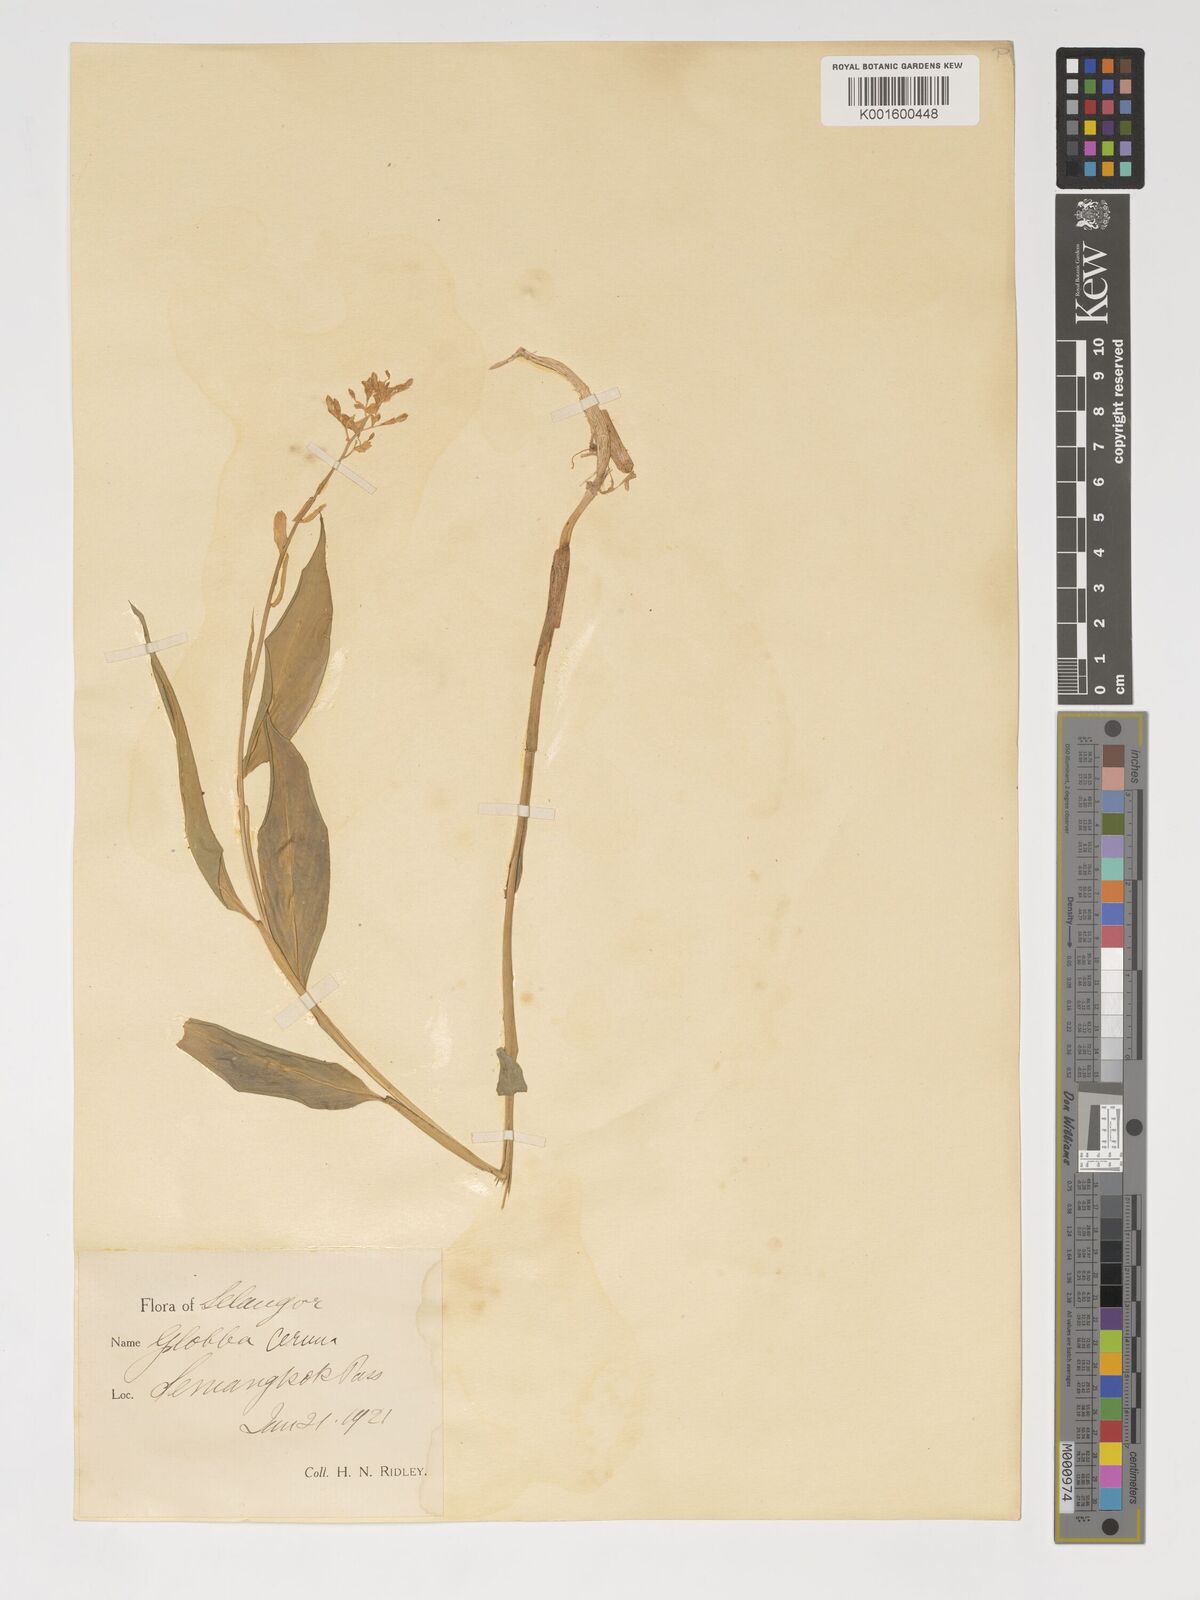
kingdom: Plantae
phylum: Tracheophyta
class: Liliopsida
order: Zingiberales
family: Zingiberaceae
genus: Globba
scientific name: Globba cernua
